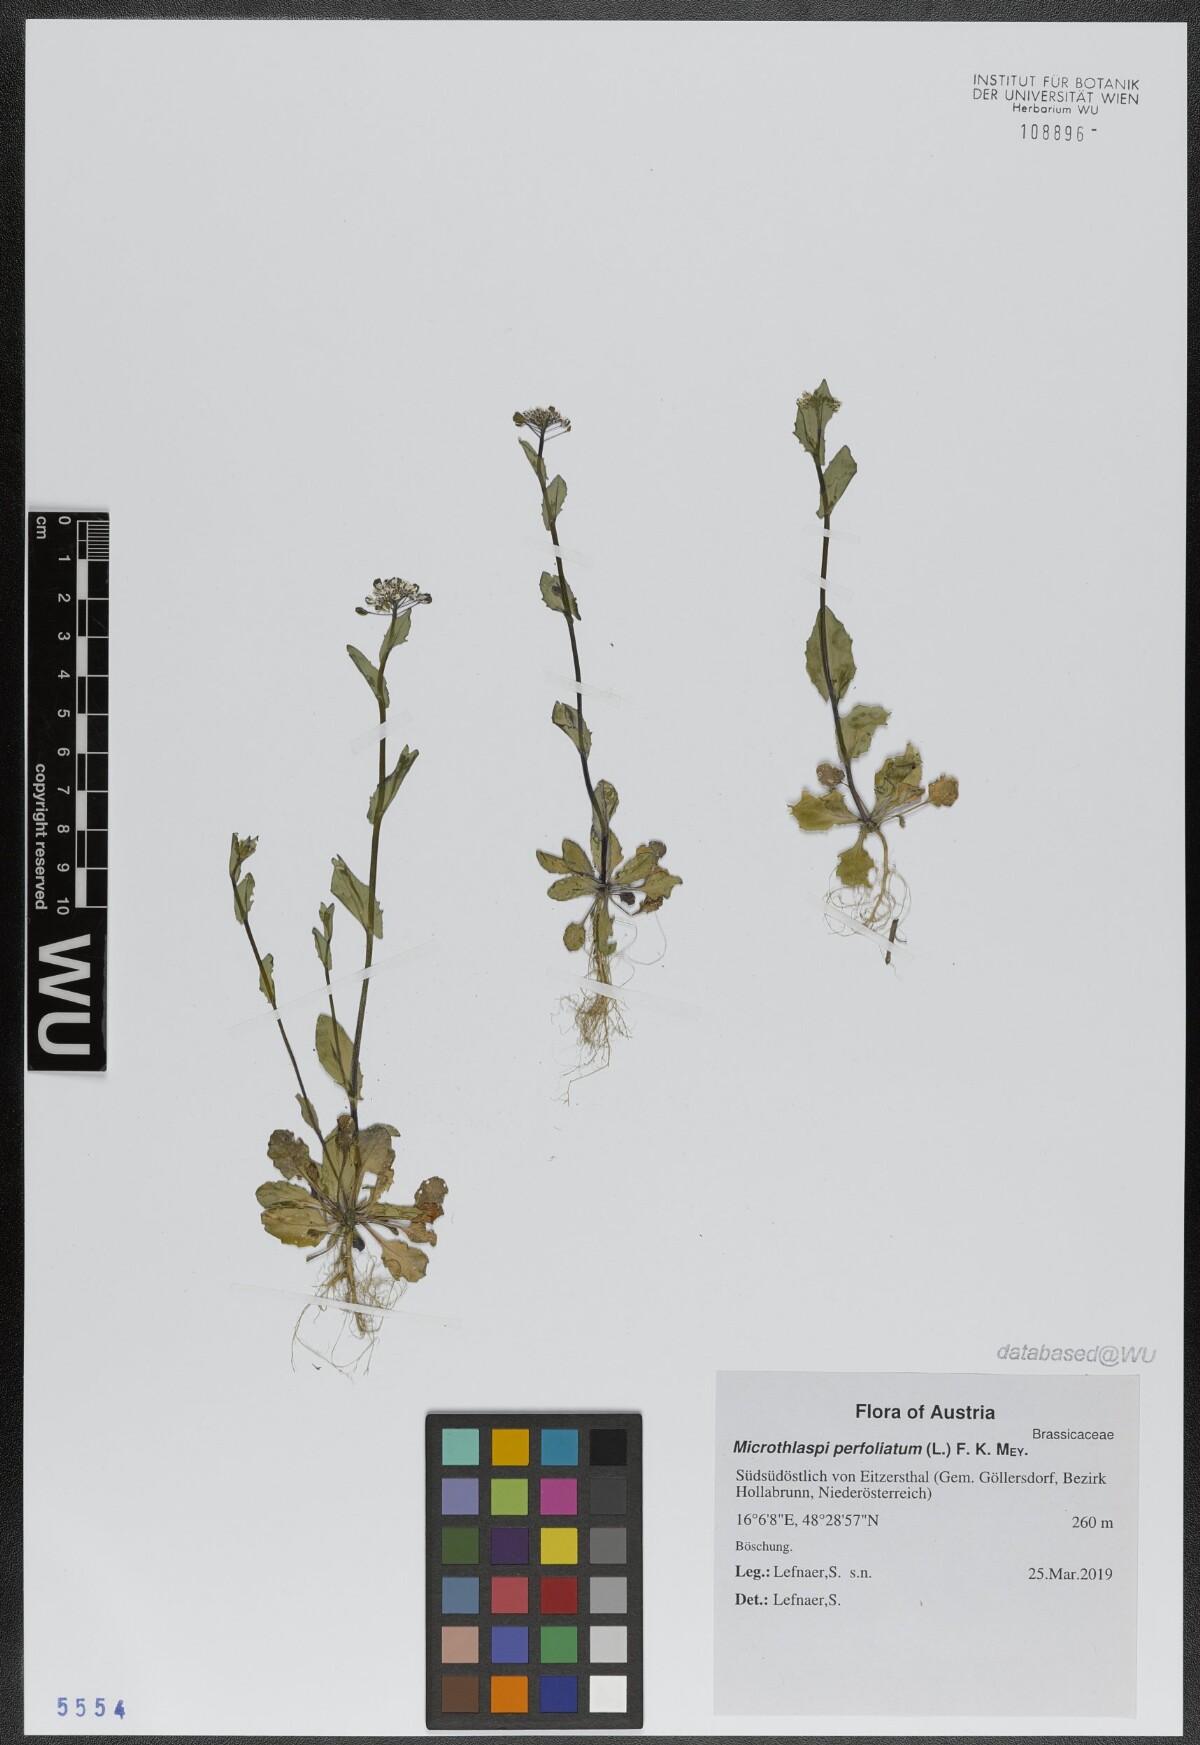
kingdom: Plantae
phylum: Tracheophyta
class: Magnoliopsida
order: Brassicales
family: Brassicaceae
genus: Noccaea
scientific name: Noccaea perfoliata
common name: Perfoliate pennycress
